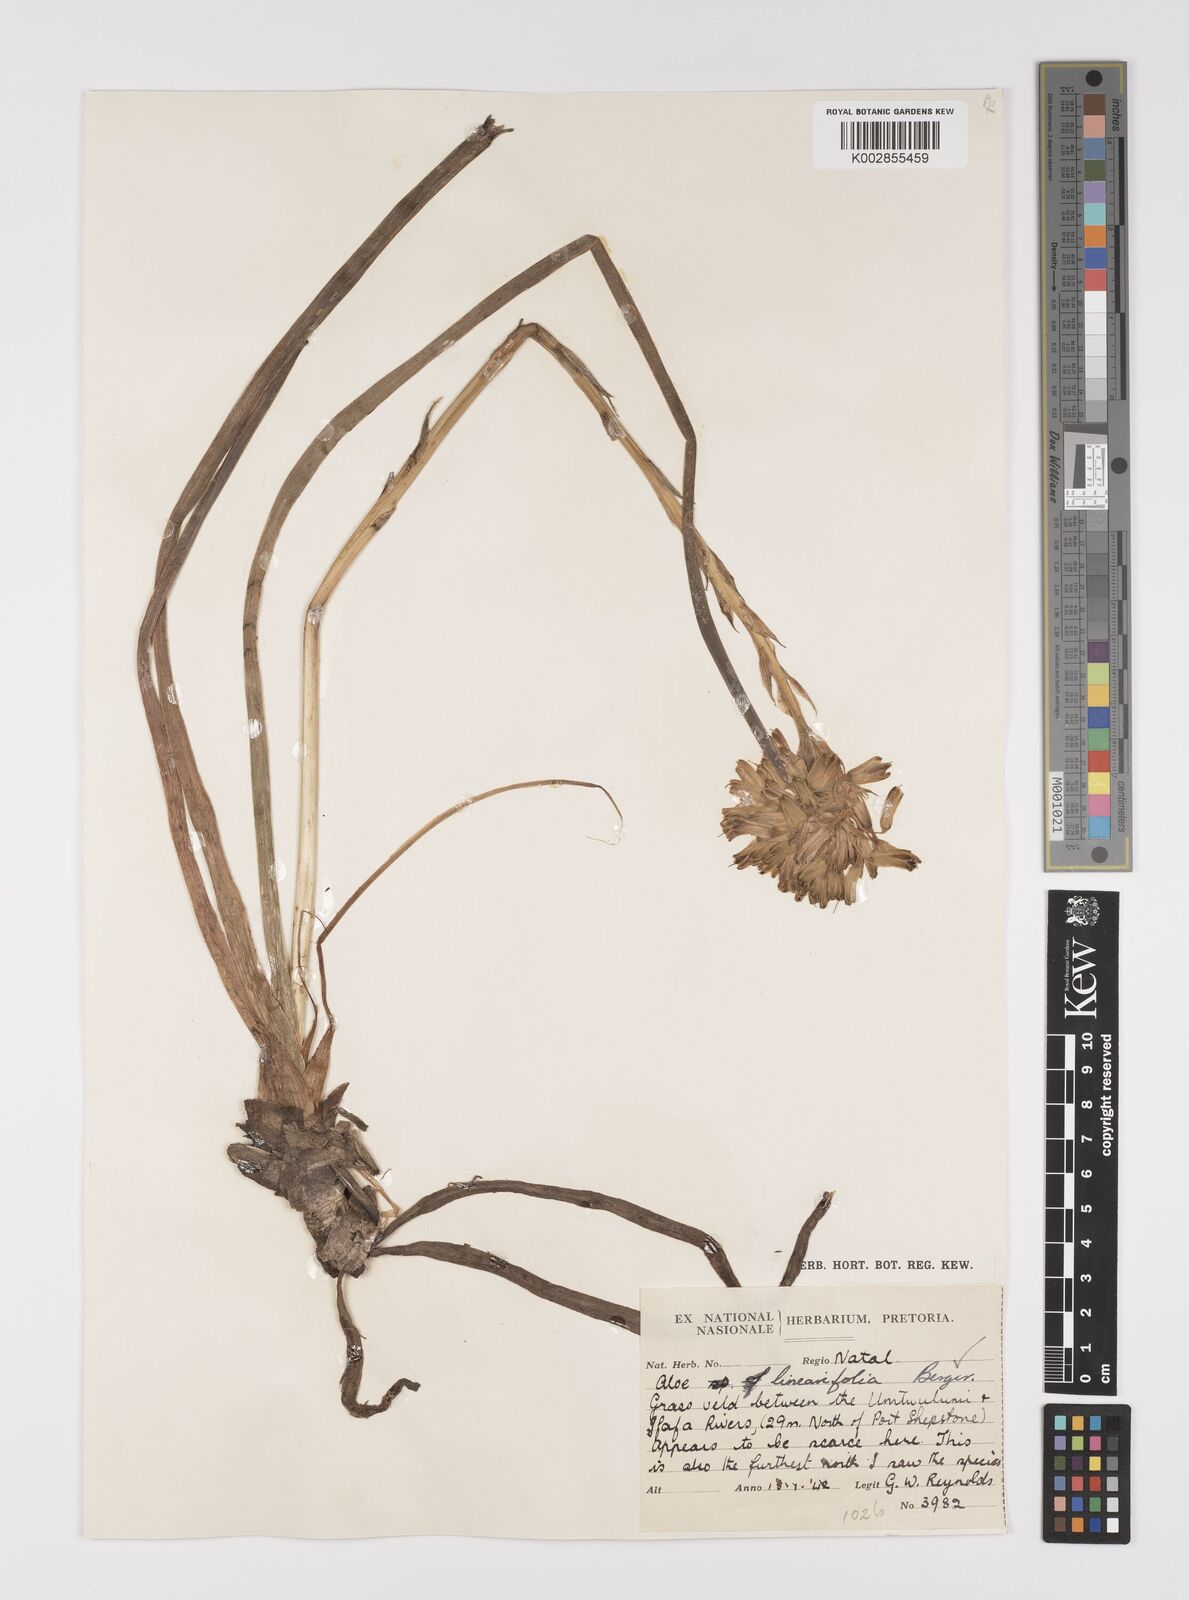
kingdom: Plantae
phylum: Tracheophyta
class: Liliopsida
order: Asparagales
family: Asphodelaceae
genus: Aloe
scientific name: Aloe linearifolia
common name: Dwarf yellow grass aloe
